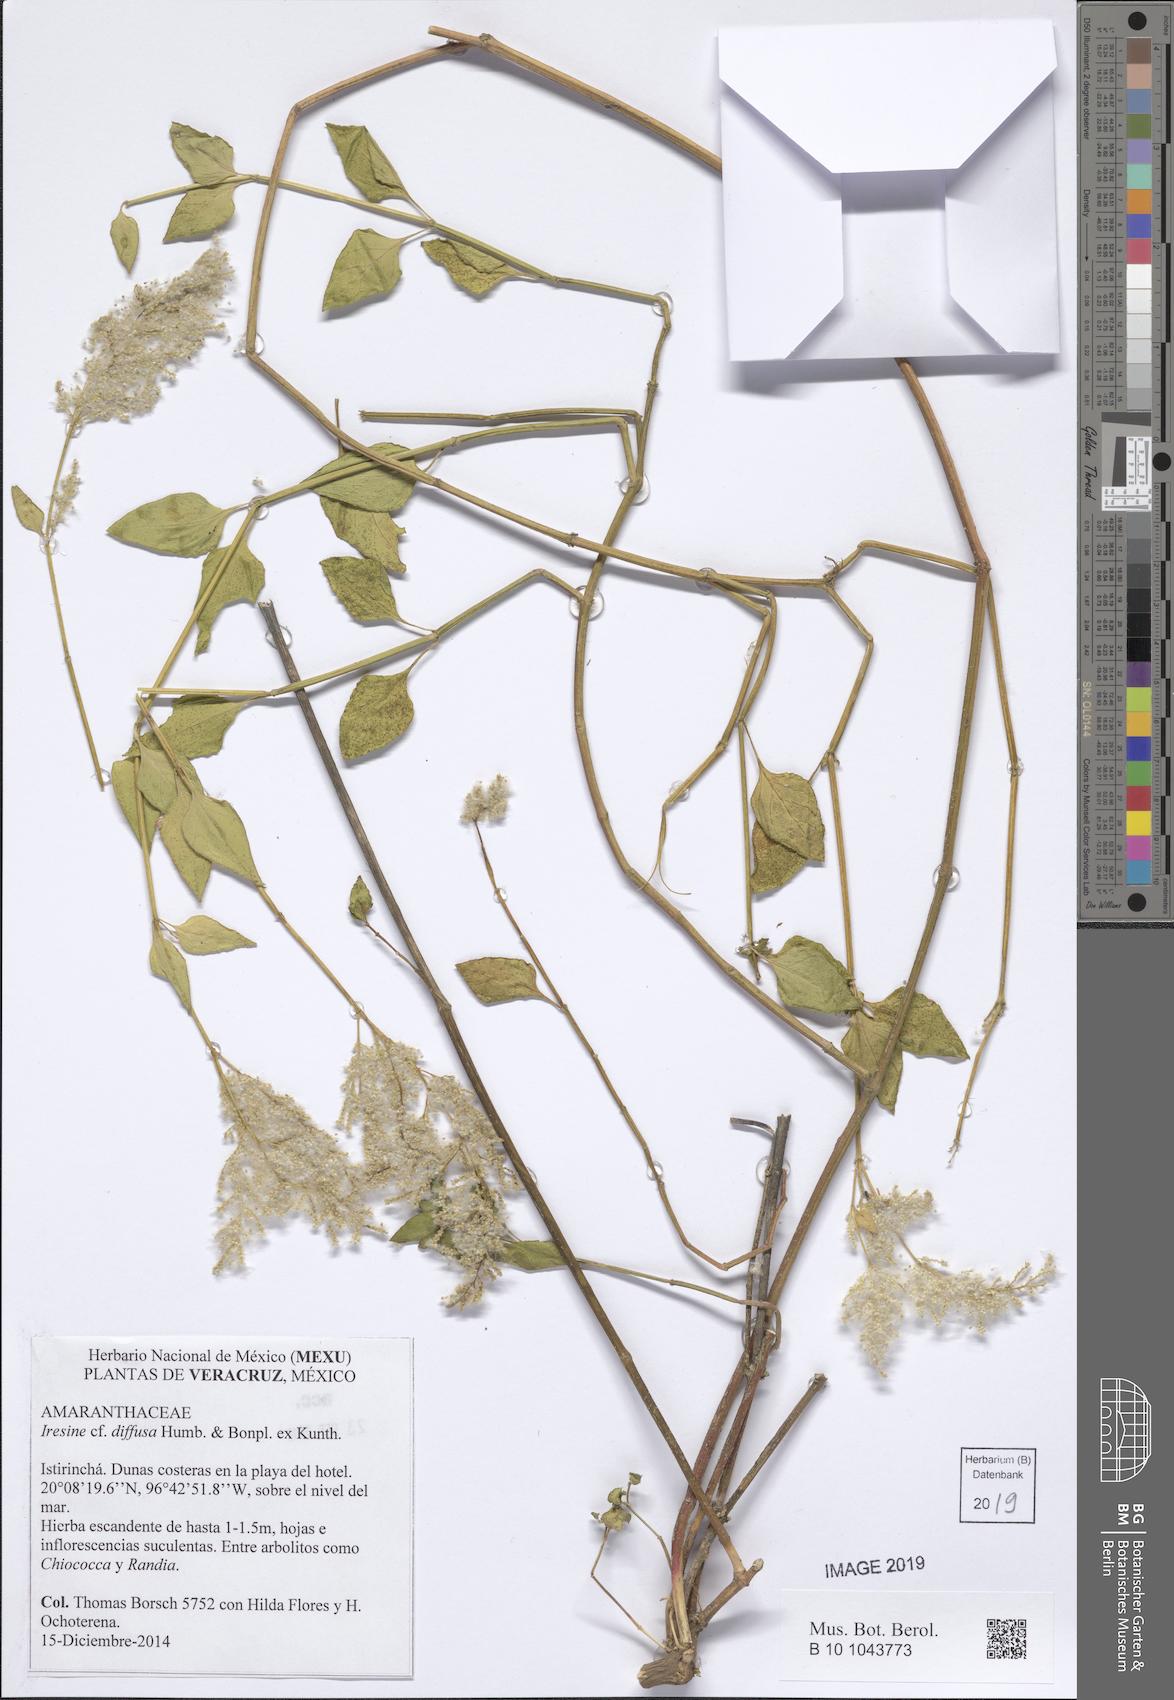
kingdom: Plantae
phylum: Tracheophyta
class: Magnoliopsida
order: Caryophyllales
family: Amaranthaceae
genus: Iresine
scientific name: Iresine diffusa
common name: Juba's-bush
